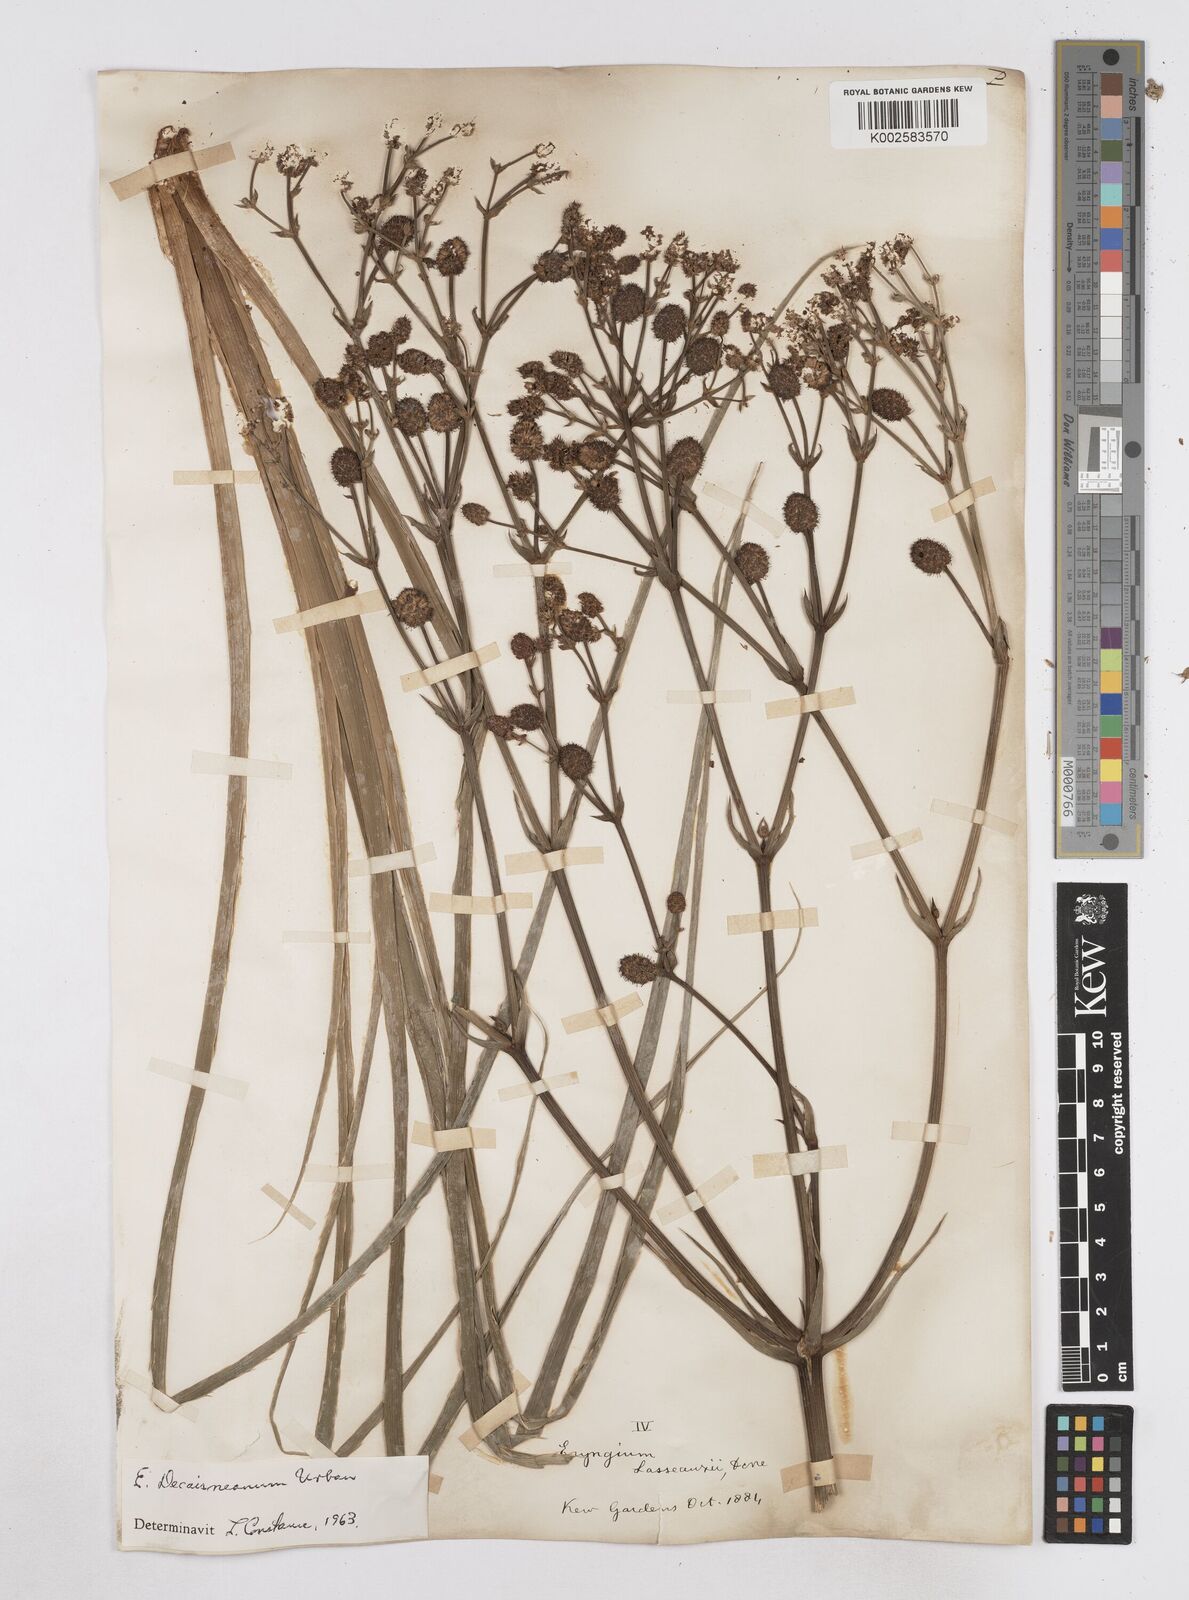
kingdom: Plantae
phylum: Tracheophyta
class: Magnoliopsida
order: Apiales
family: Apiaceae
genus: Eryngium
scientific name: Eryngium pandanifolium
